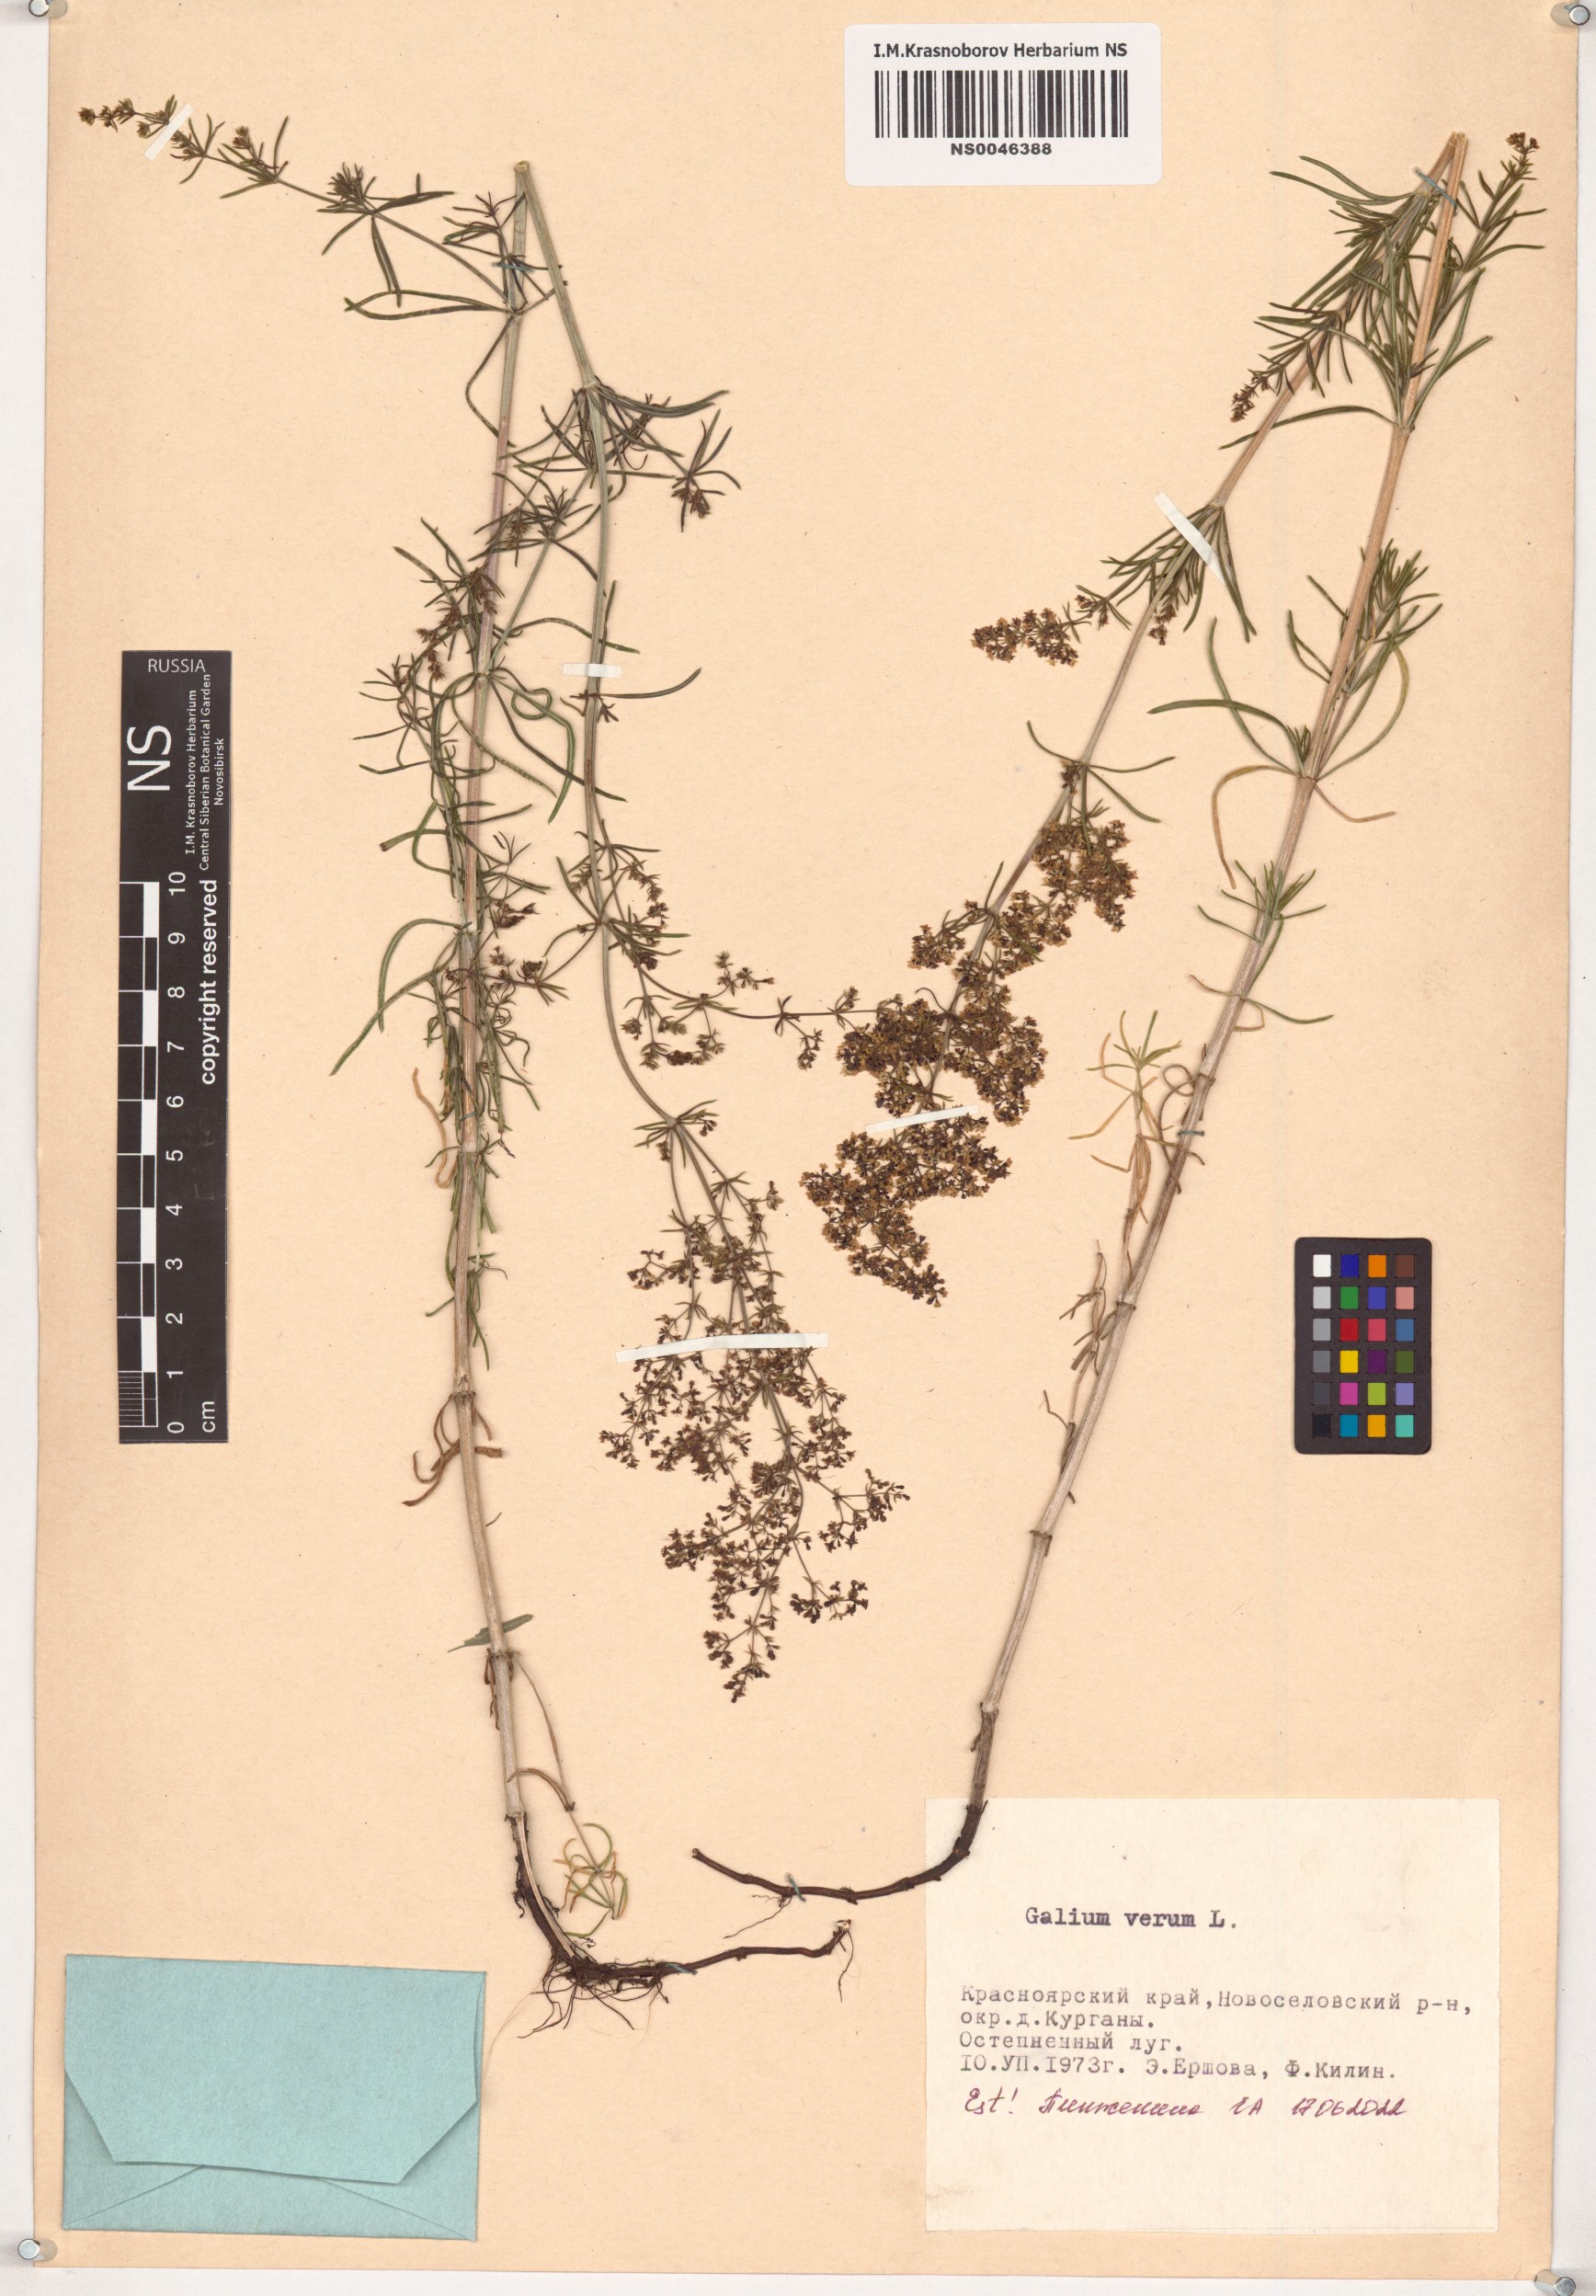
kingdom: Plantae
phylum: Tracheophyta
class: Magnoliopsida
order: Gentianales
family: Rubiaceae
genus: Galium
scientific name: Galium verum
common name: Lady's bedstraw
